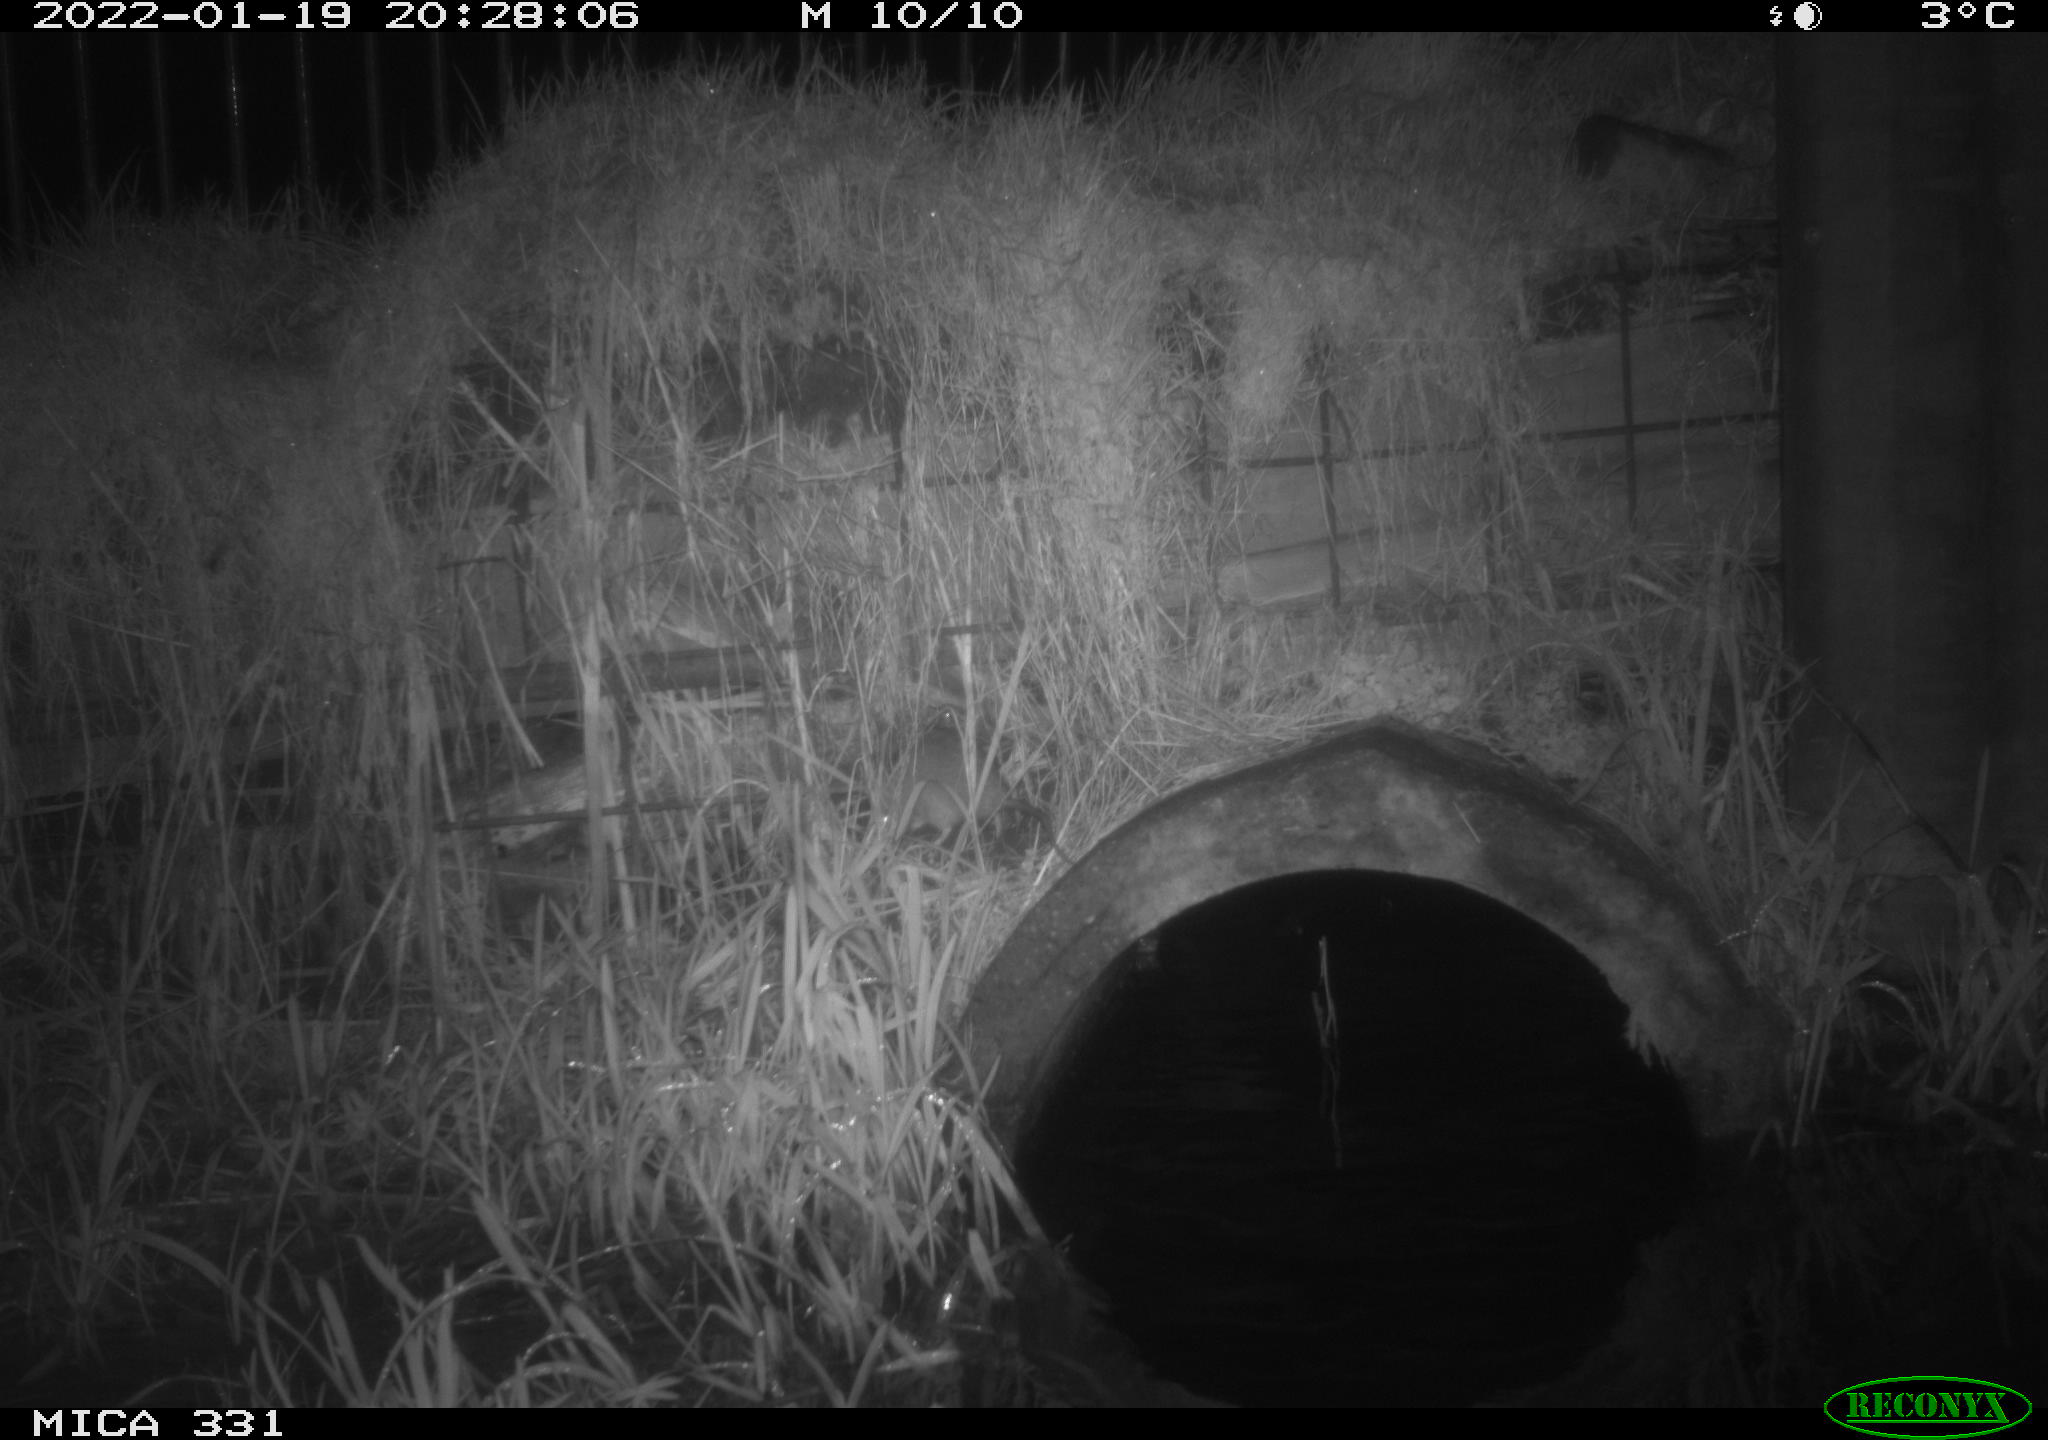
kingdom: Animalia
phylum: Chordata
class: Mammalia
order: Rodentia
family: Muridae
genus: Rattus
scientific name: Rattus norvegicus
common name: Brown rat
